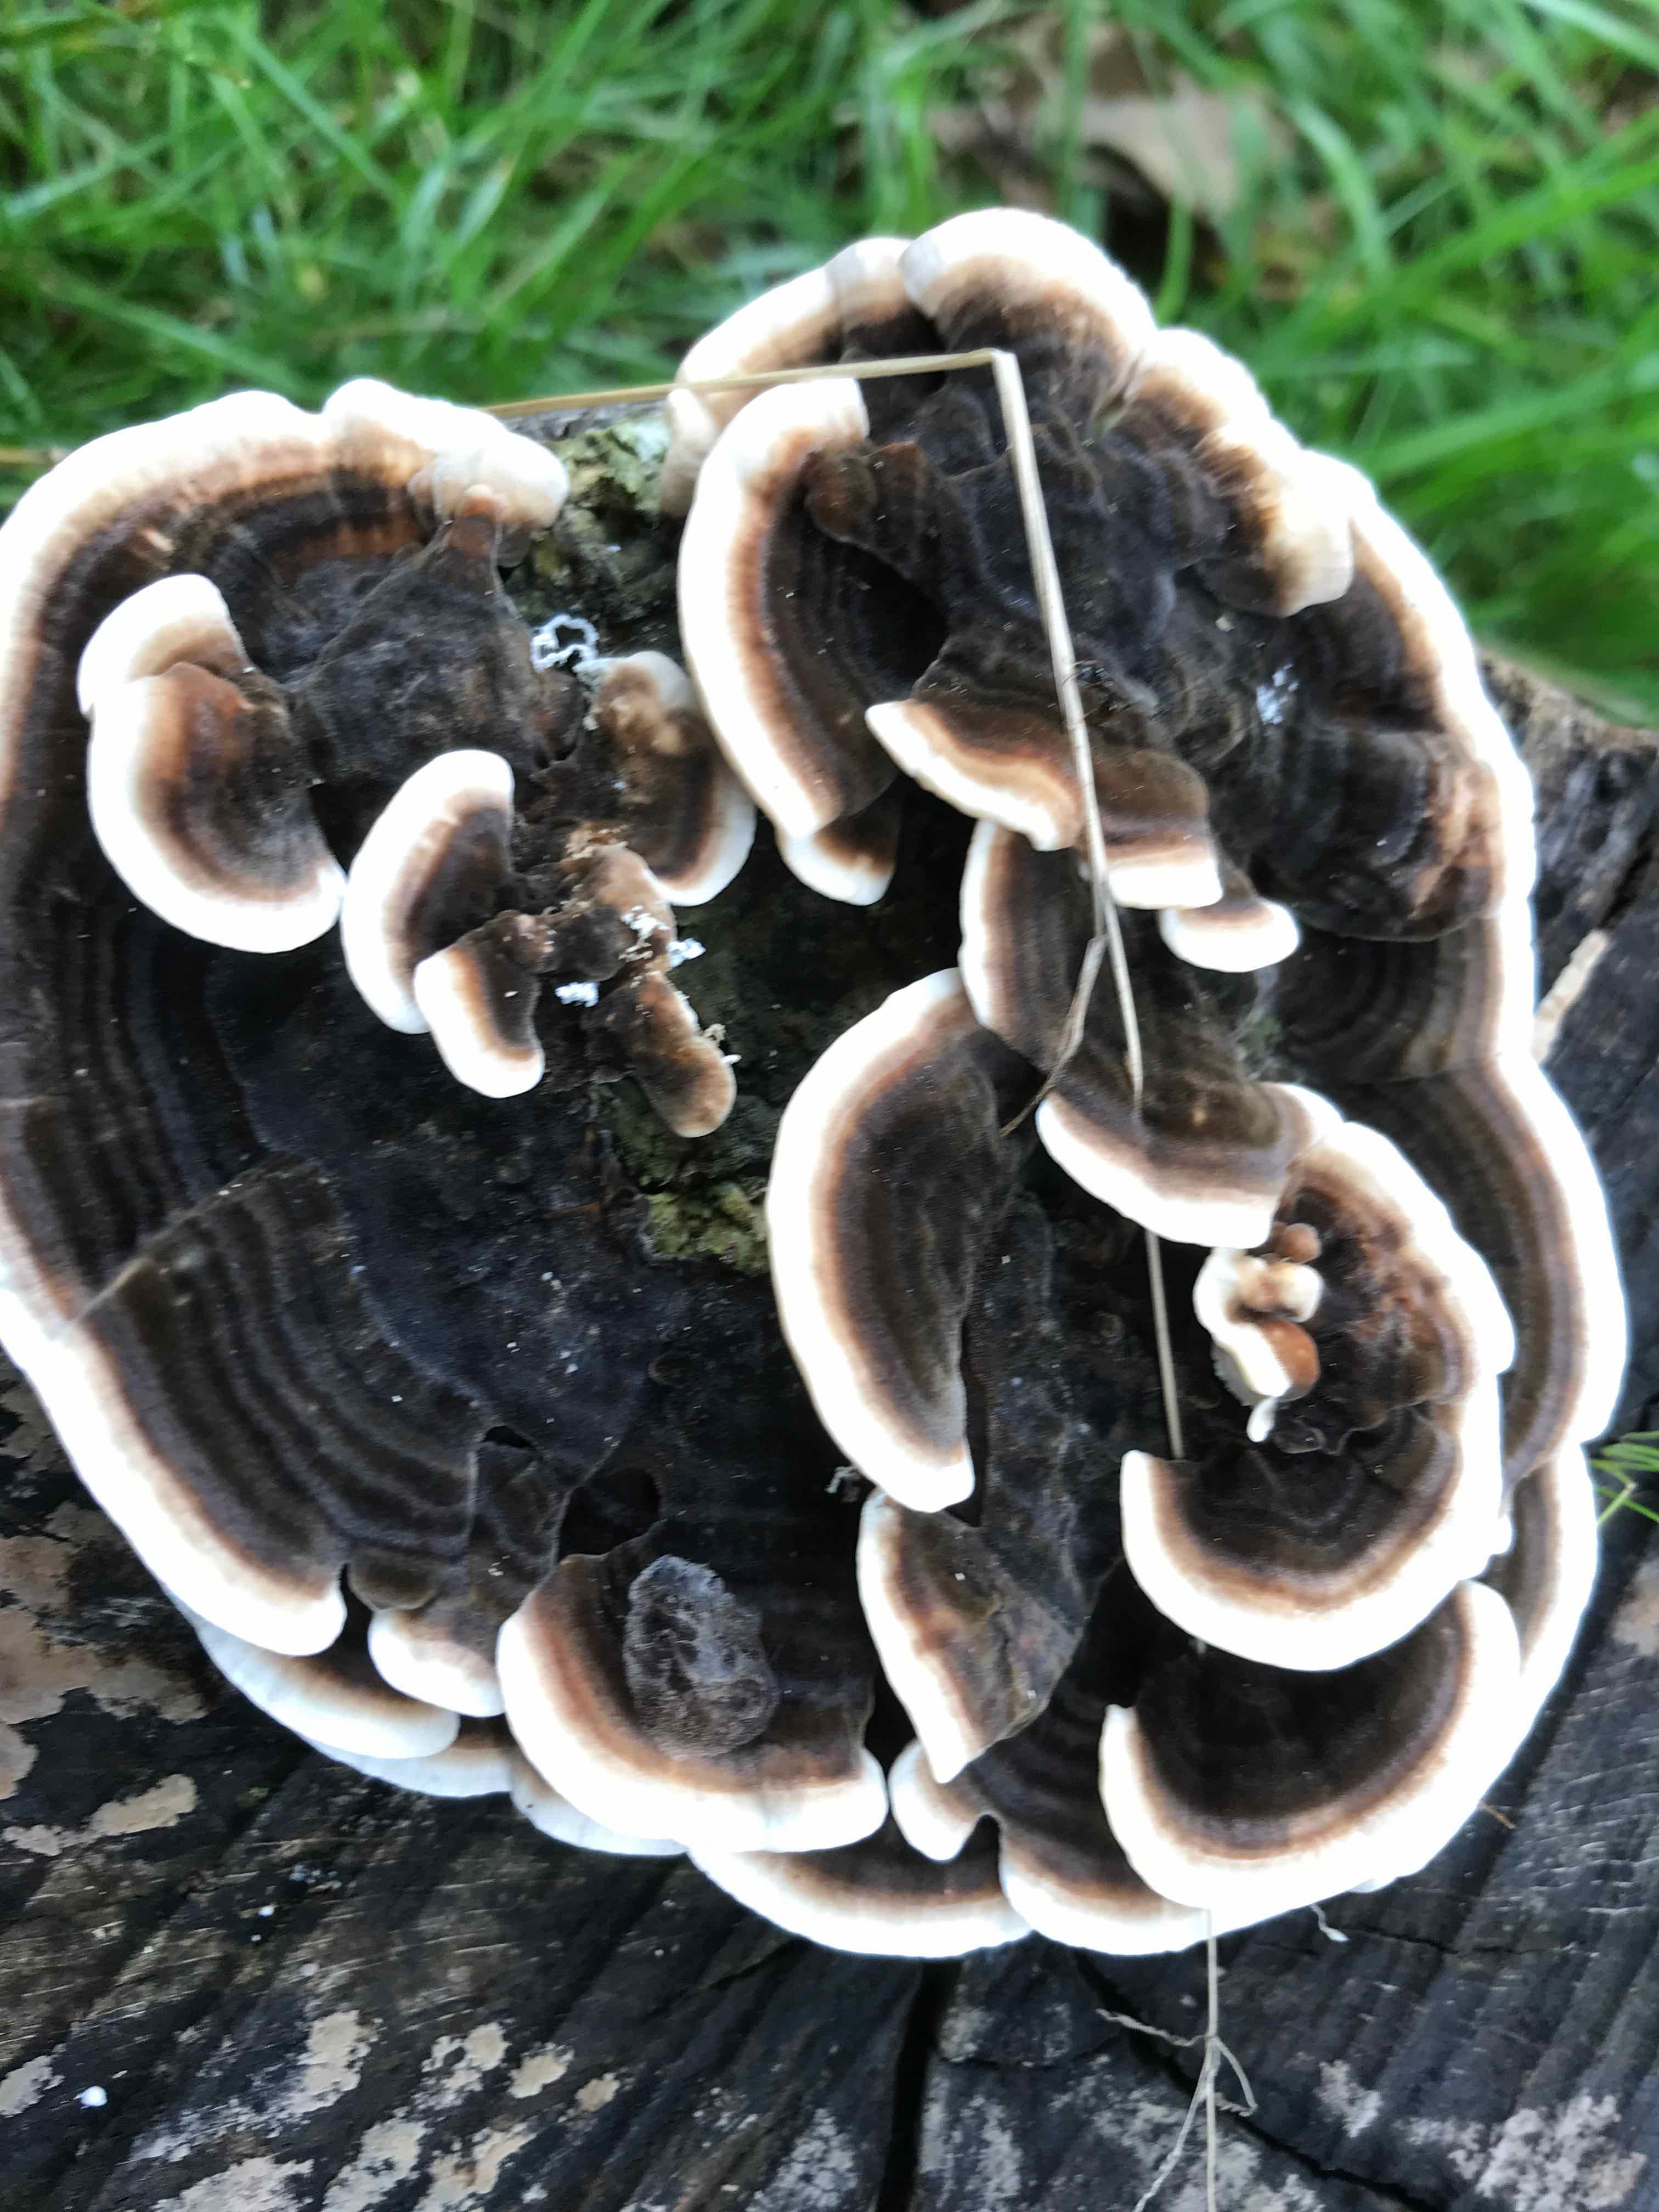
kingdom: Fungi
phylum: Basidiomycota
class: Agaricomycetes
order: Polyporales
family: Polyporaceae
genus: Trametes
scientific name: Trametes versicolor
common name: broget læderporesvamp
